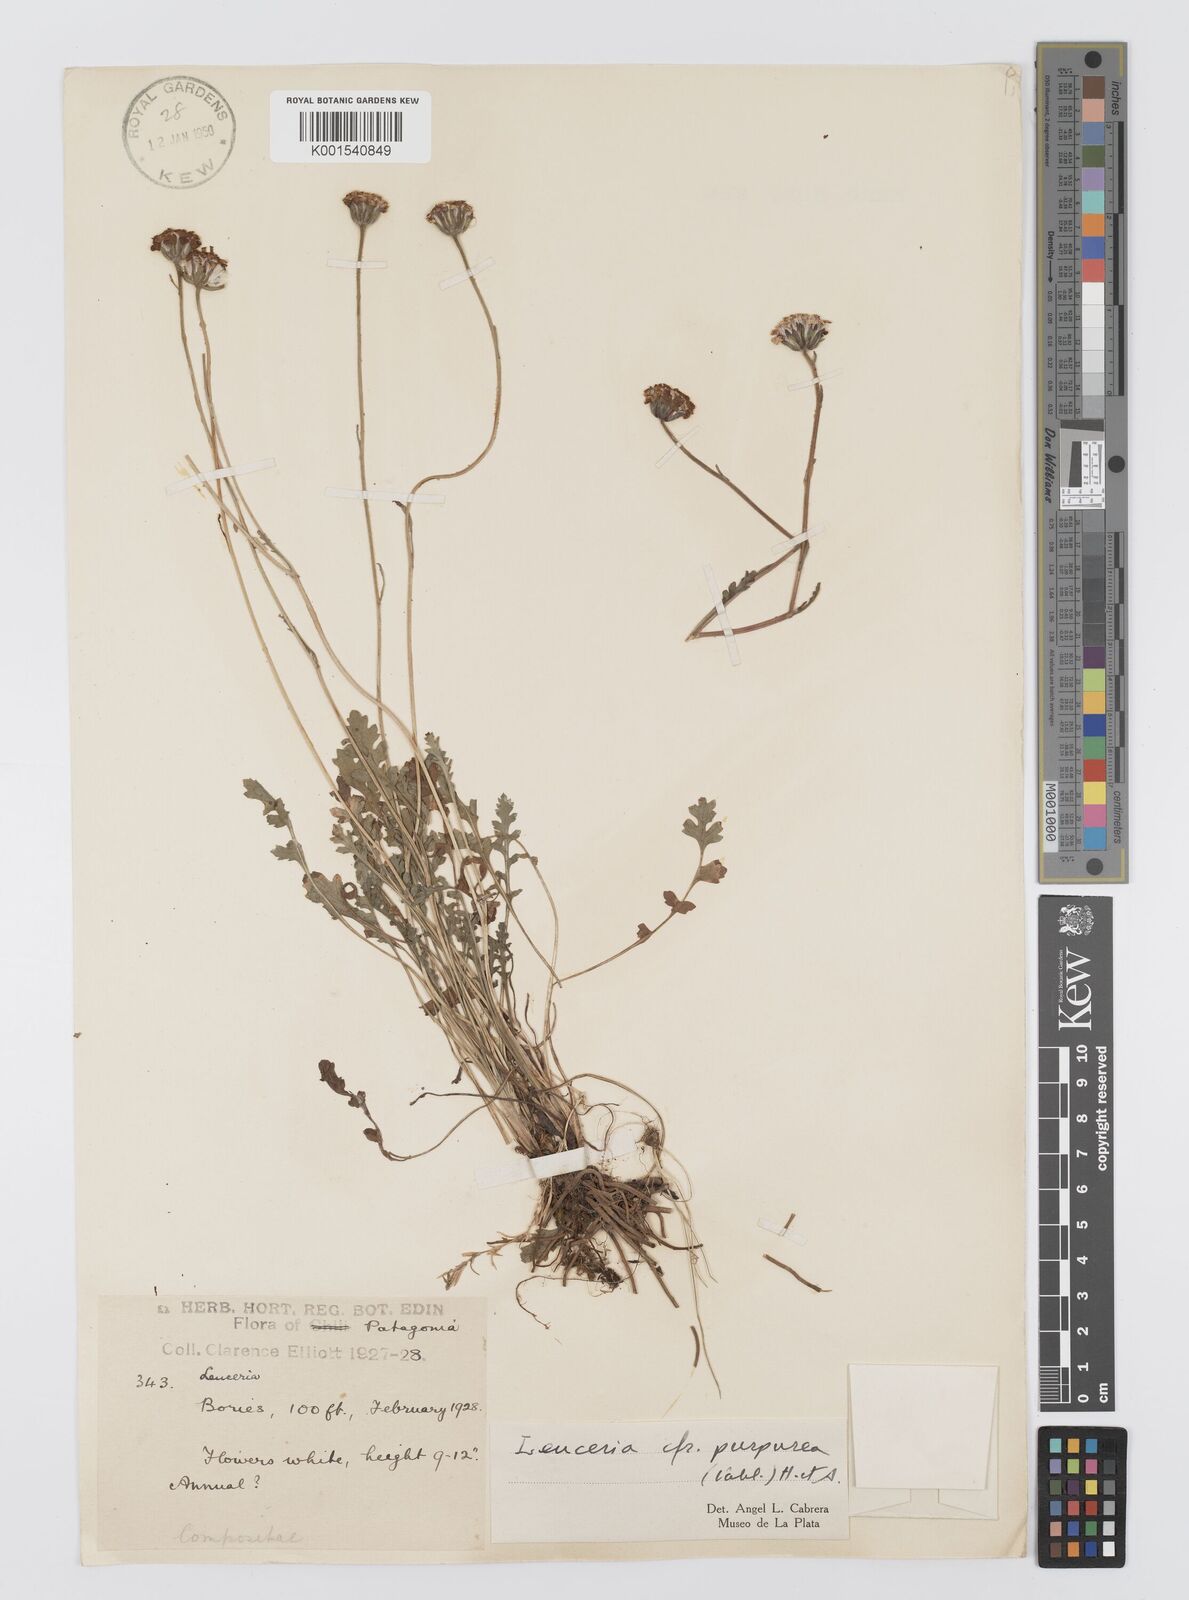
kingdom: Plantae
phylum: Tracheophyta
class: Magnoliopsida
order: Asterales
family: Asteraceae
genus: Leucheria
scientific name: Leucheria purpurea
